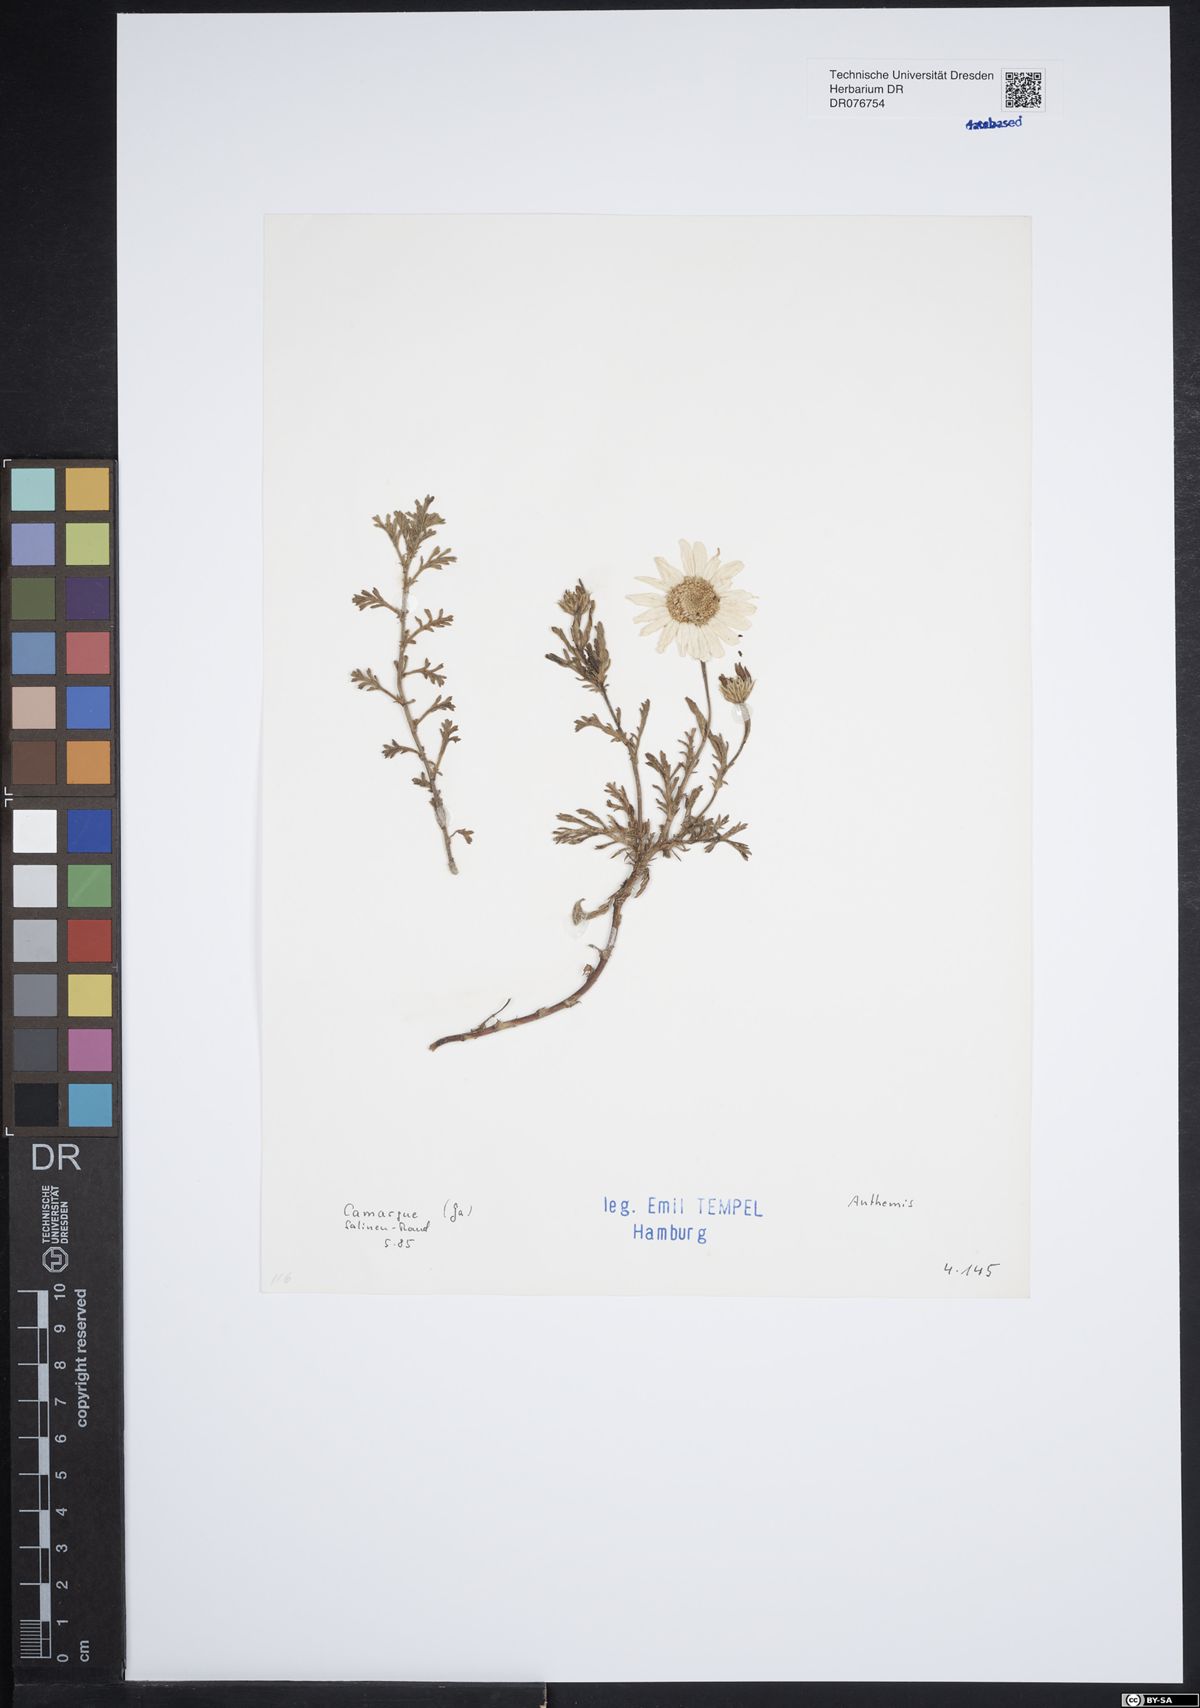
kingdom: Plantae
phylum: Tracheophyta
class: Magnoliopsida
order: Asterales
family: Asteraceae
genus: Anthemis
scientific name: Anthemis
